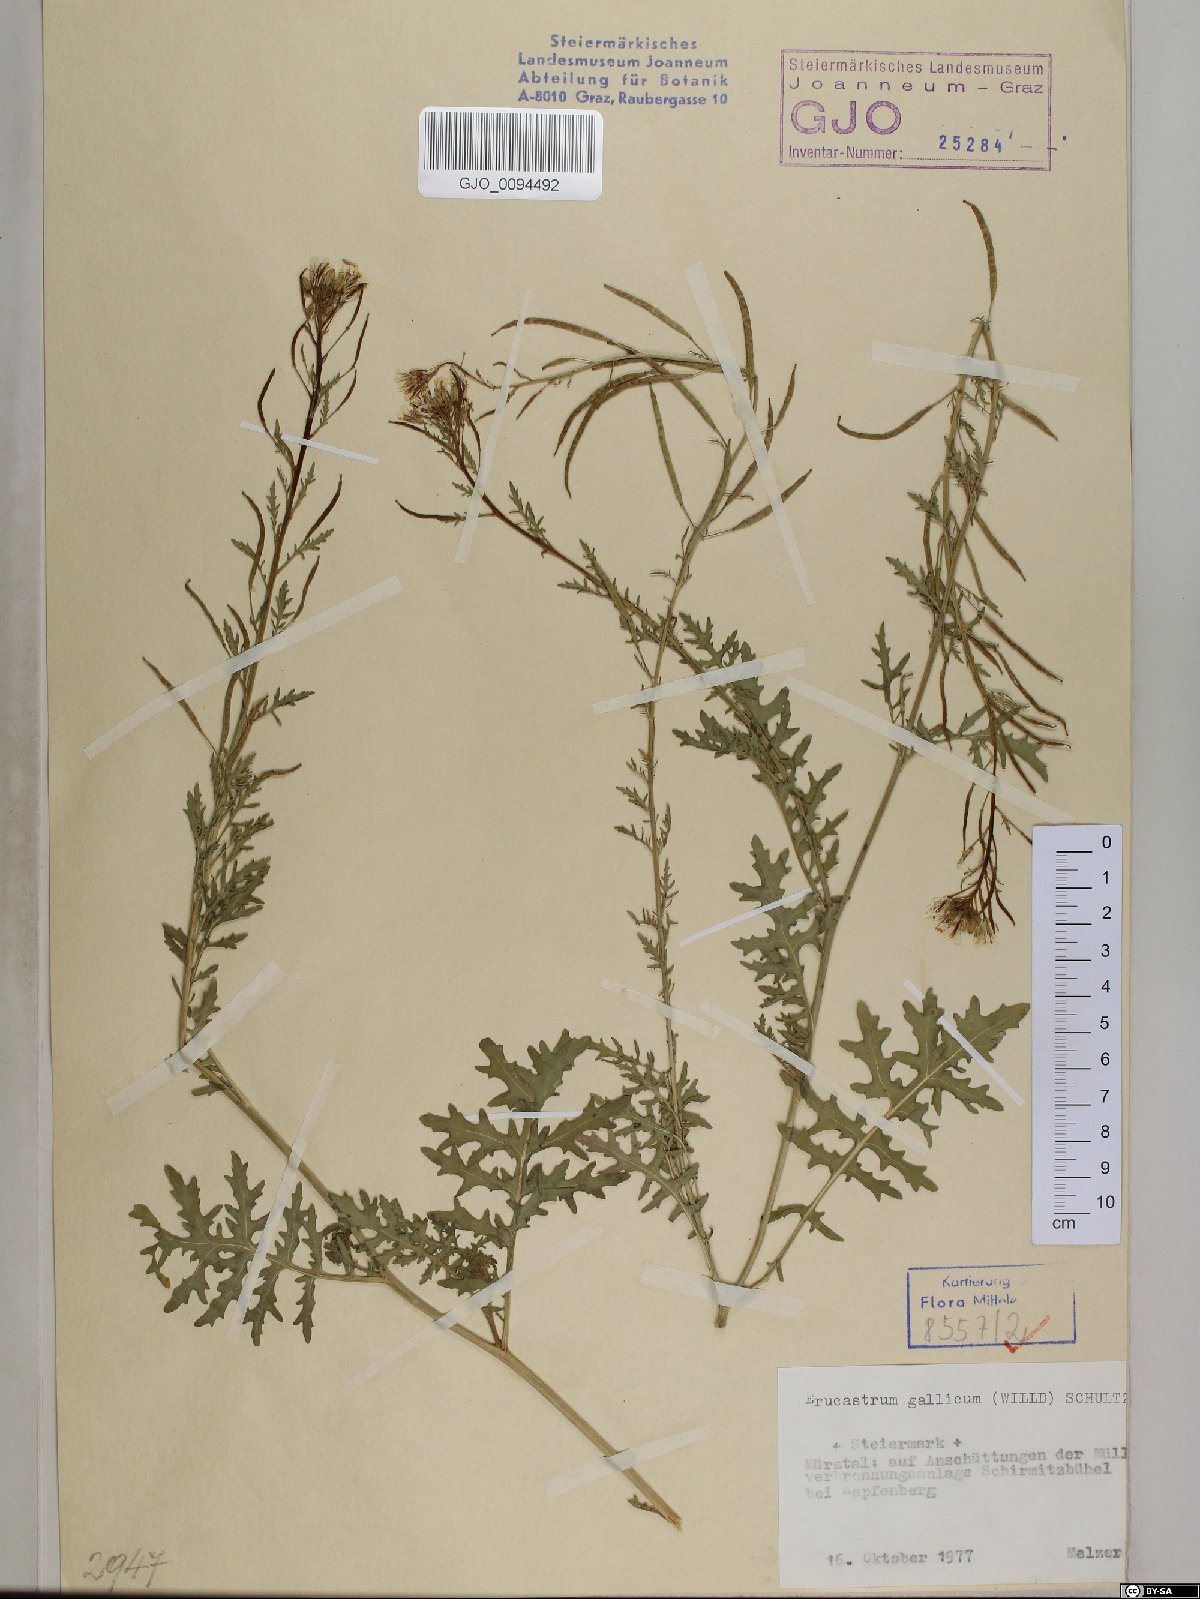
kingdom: Plantae
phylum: Tracheophyta
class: Magnoliopsida
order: Brassicales
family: Brassicaceae
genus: Erucastrum
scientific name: Erucastrum gallicum
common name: Hairy rocket
